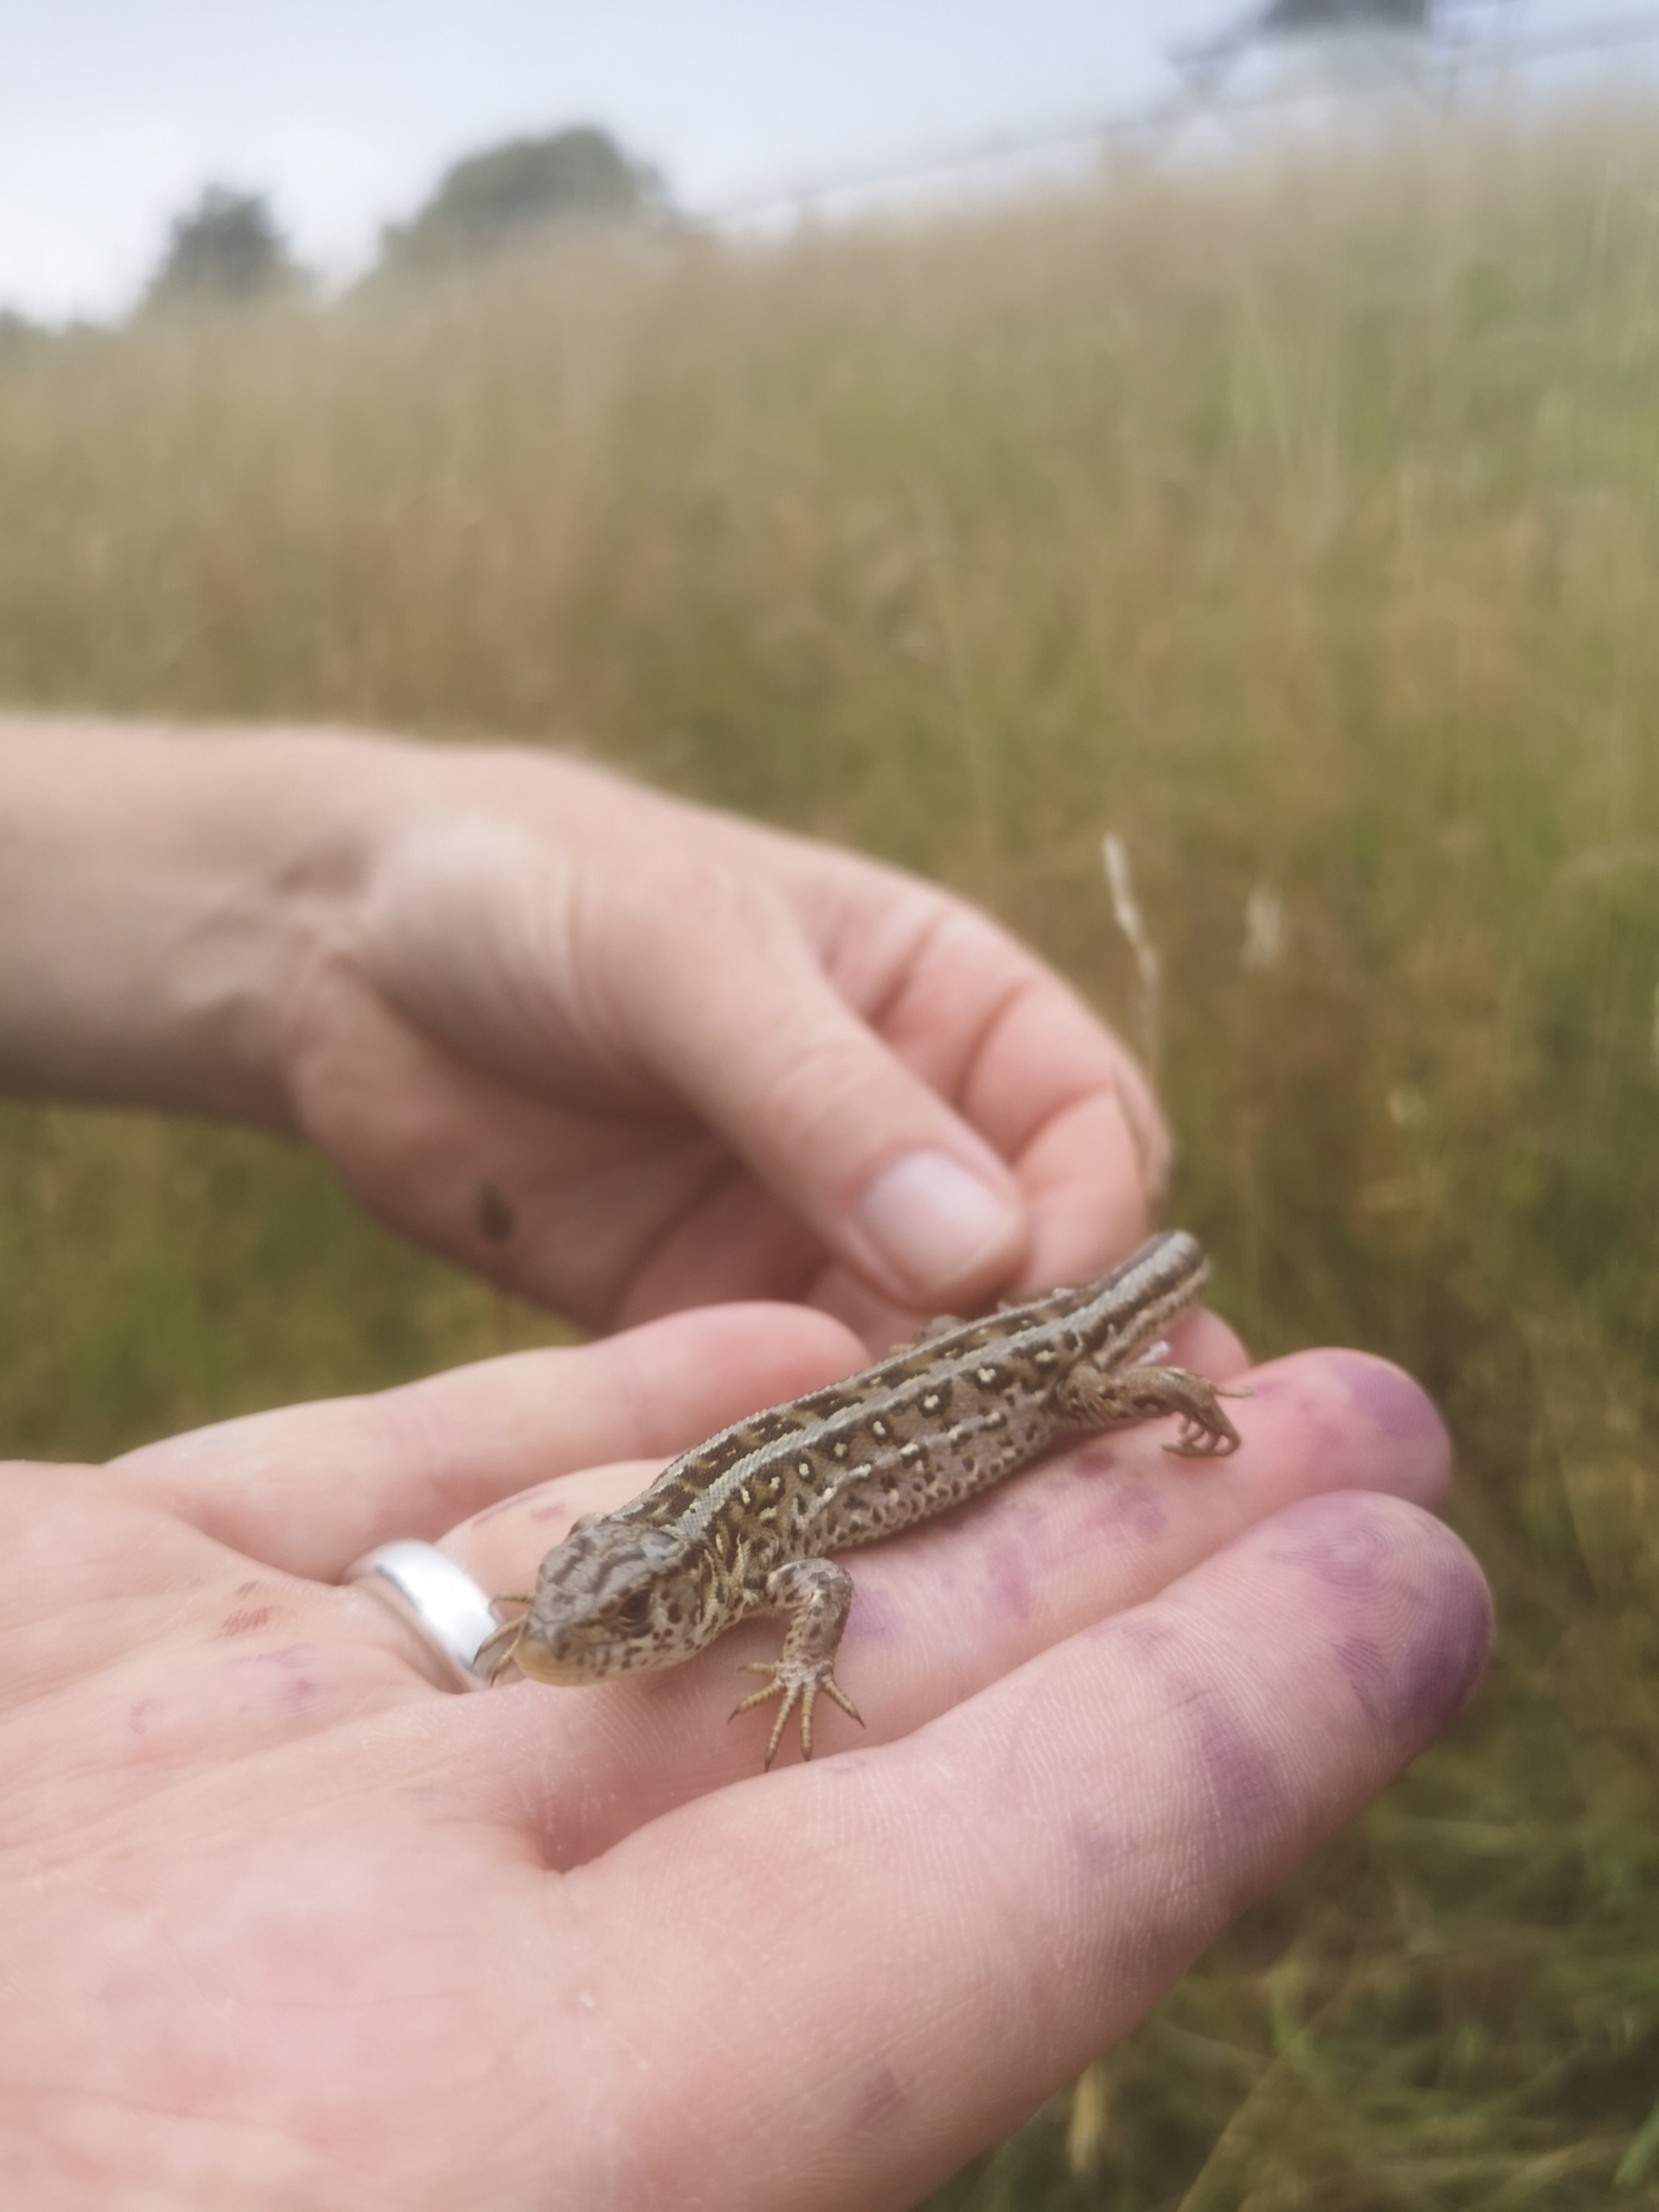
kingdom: Animalia
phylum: Chordata
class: Squamata
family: Lacertidae
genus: Lacerta
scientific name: Lacerta agilis
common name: Markfirben
